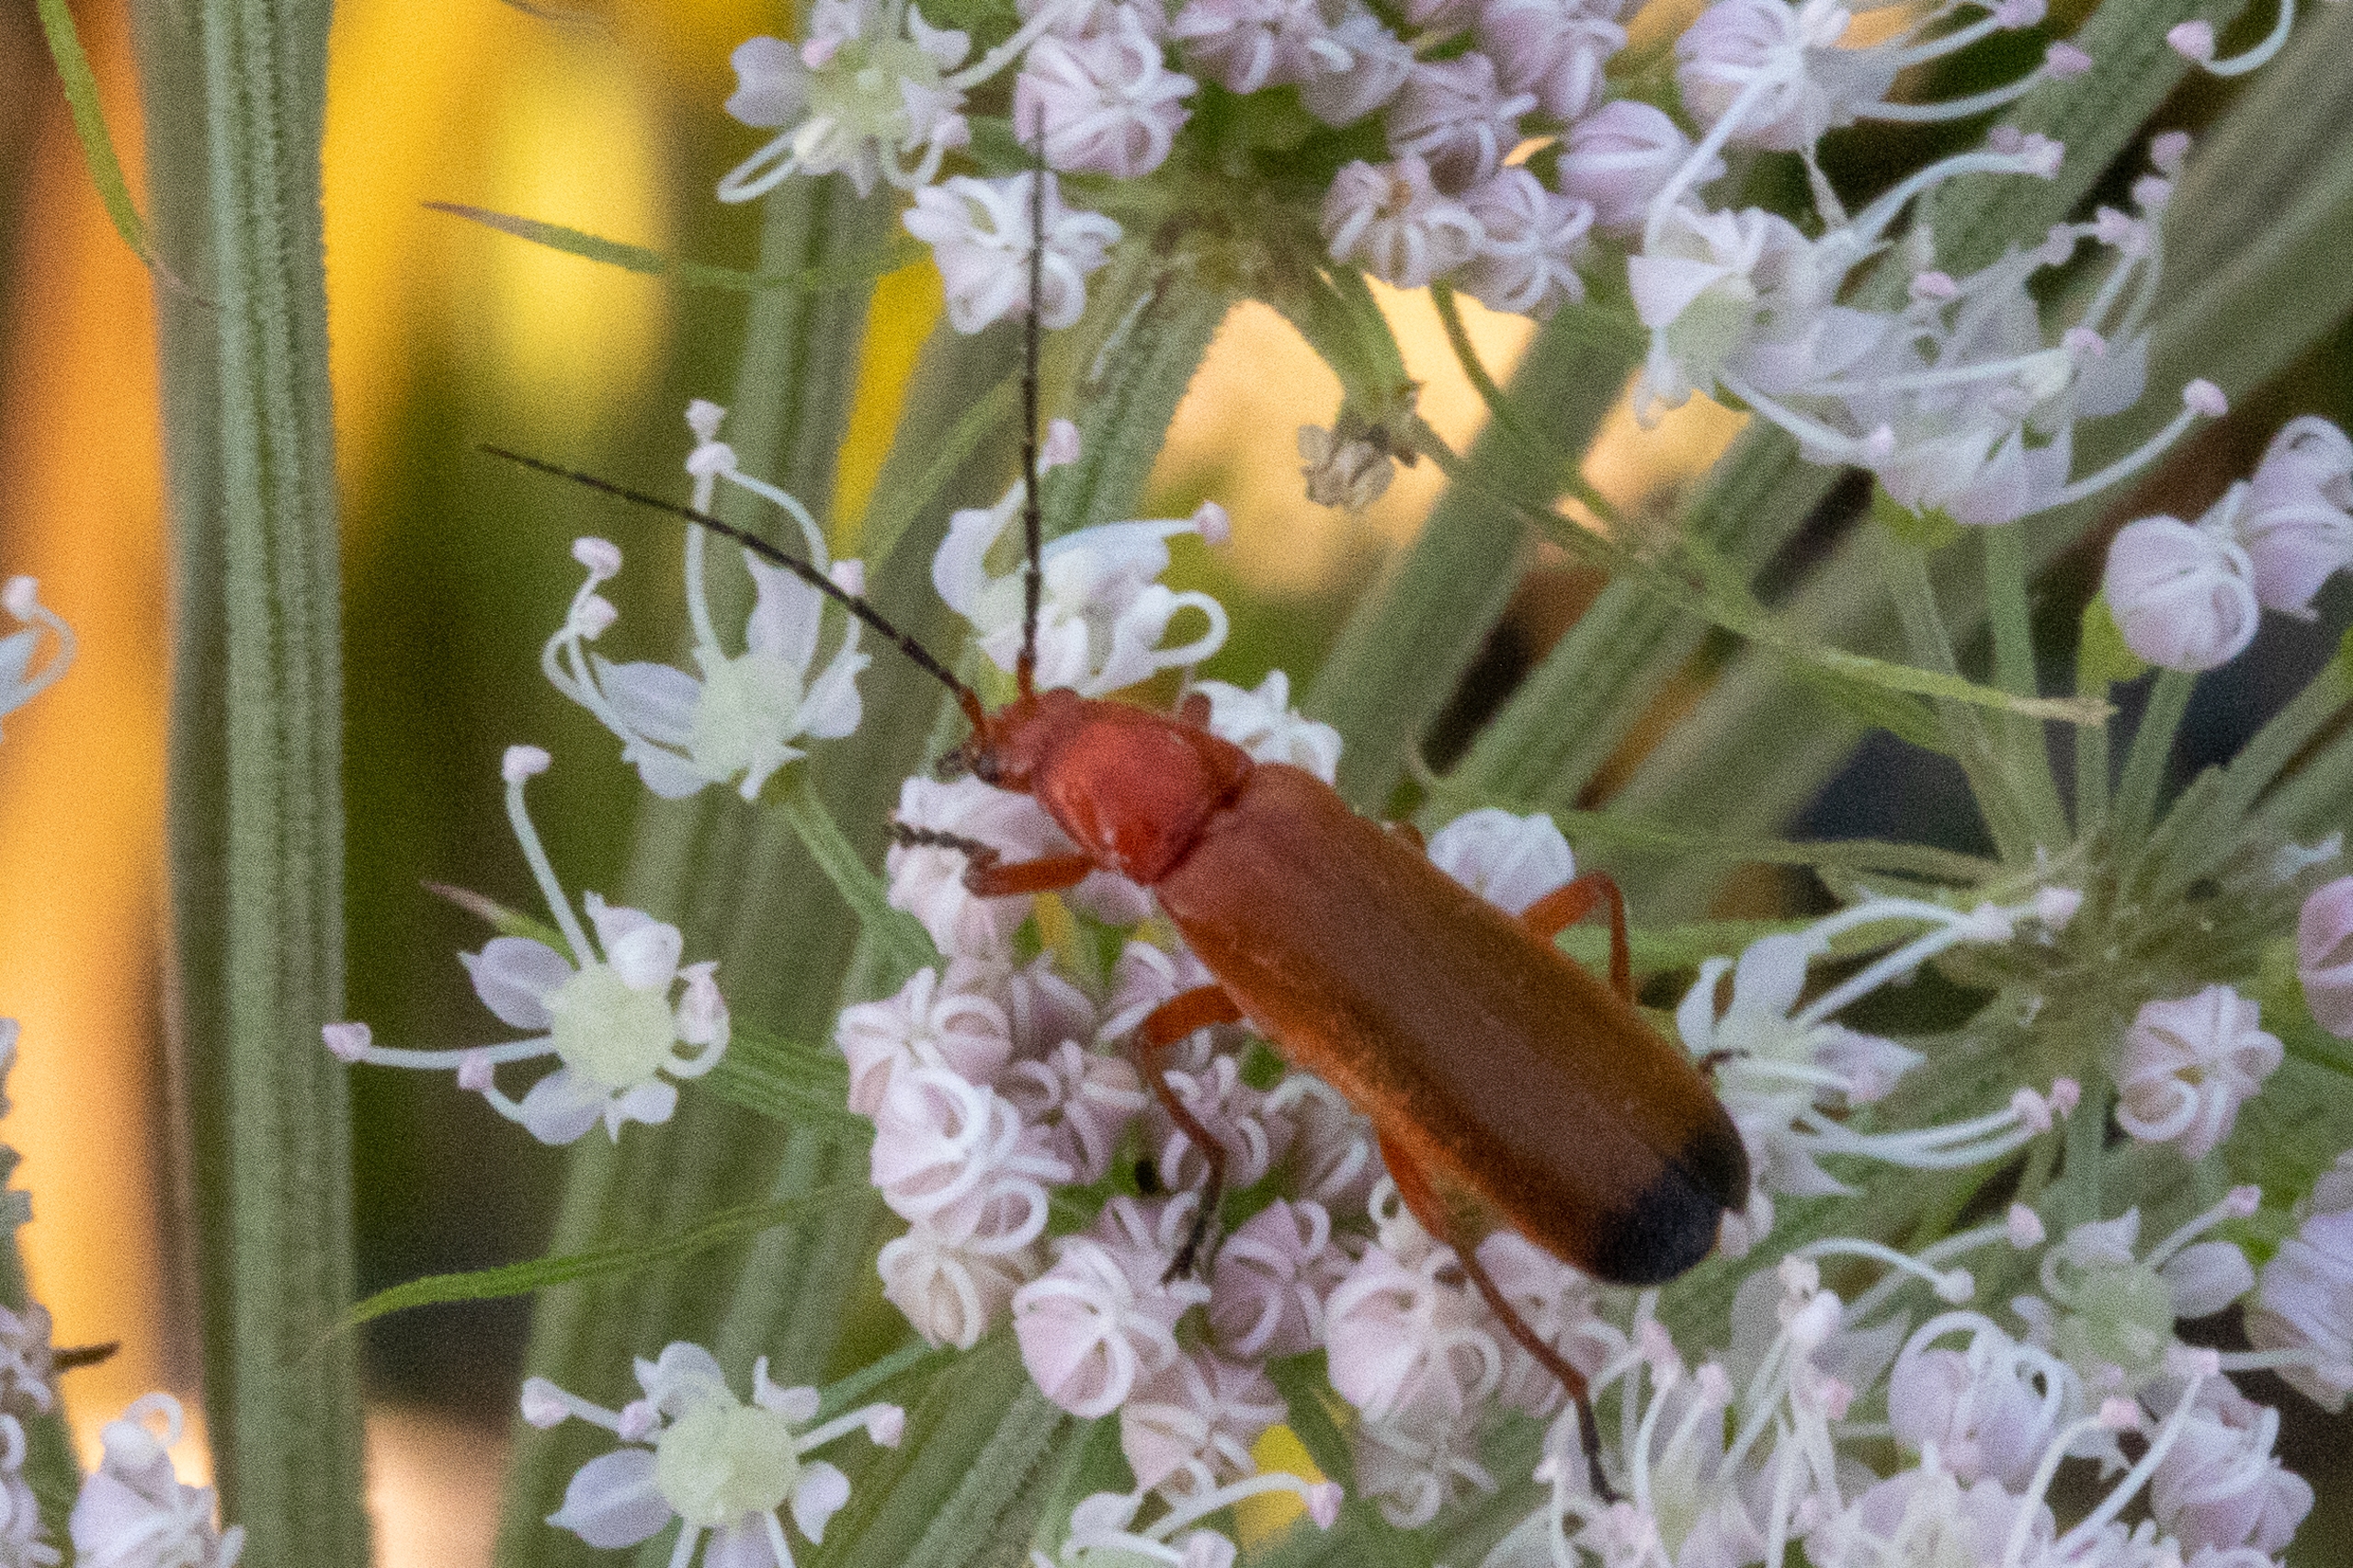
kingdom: Animalia
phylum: Arthropoda
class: Insecta
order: Coleoptera
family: Cantharidae
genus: Rhagonycha
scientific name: Rhagonycha fulva
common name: Præstebille
